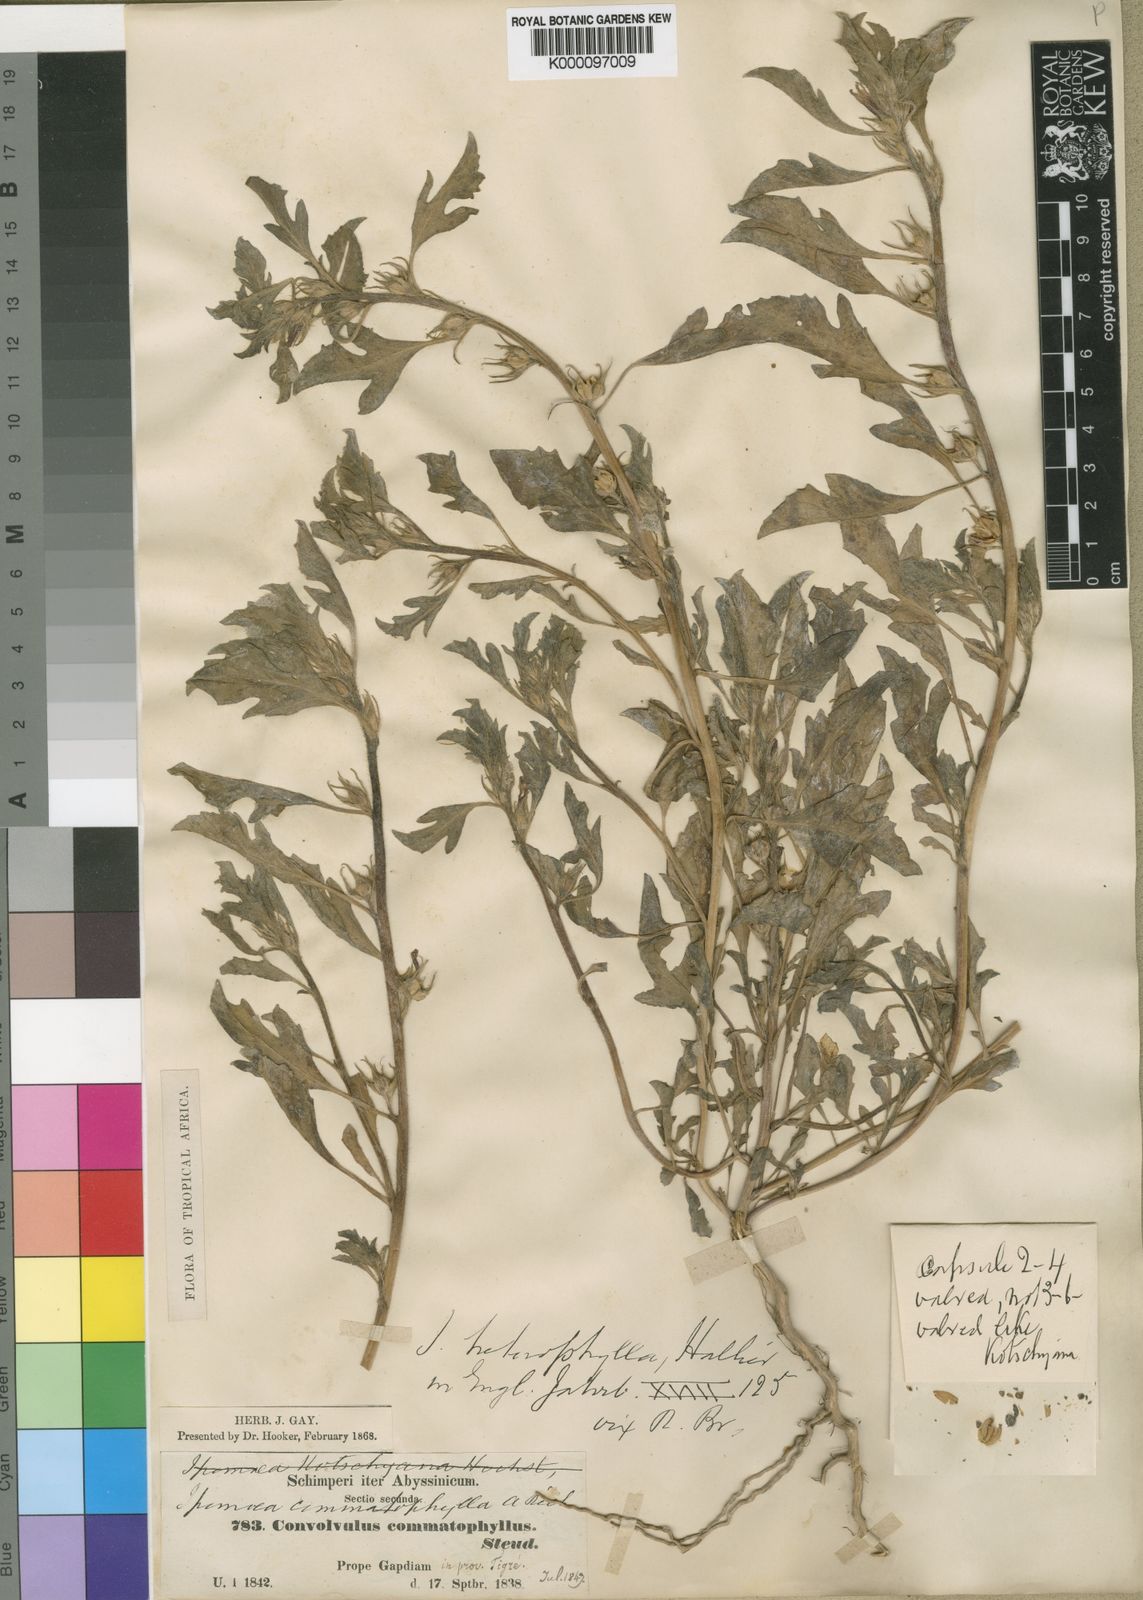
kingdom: Plantae
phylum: Tracheophyta
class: Magnoliopsida
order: Solanales
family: Convolvulaceae
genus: Ipomoea
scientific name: Ipomoea polymorpha
